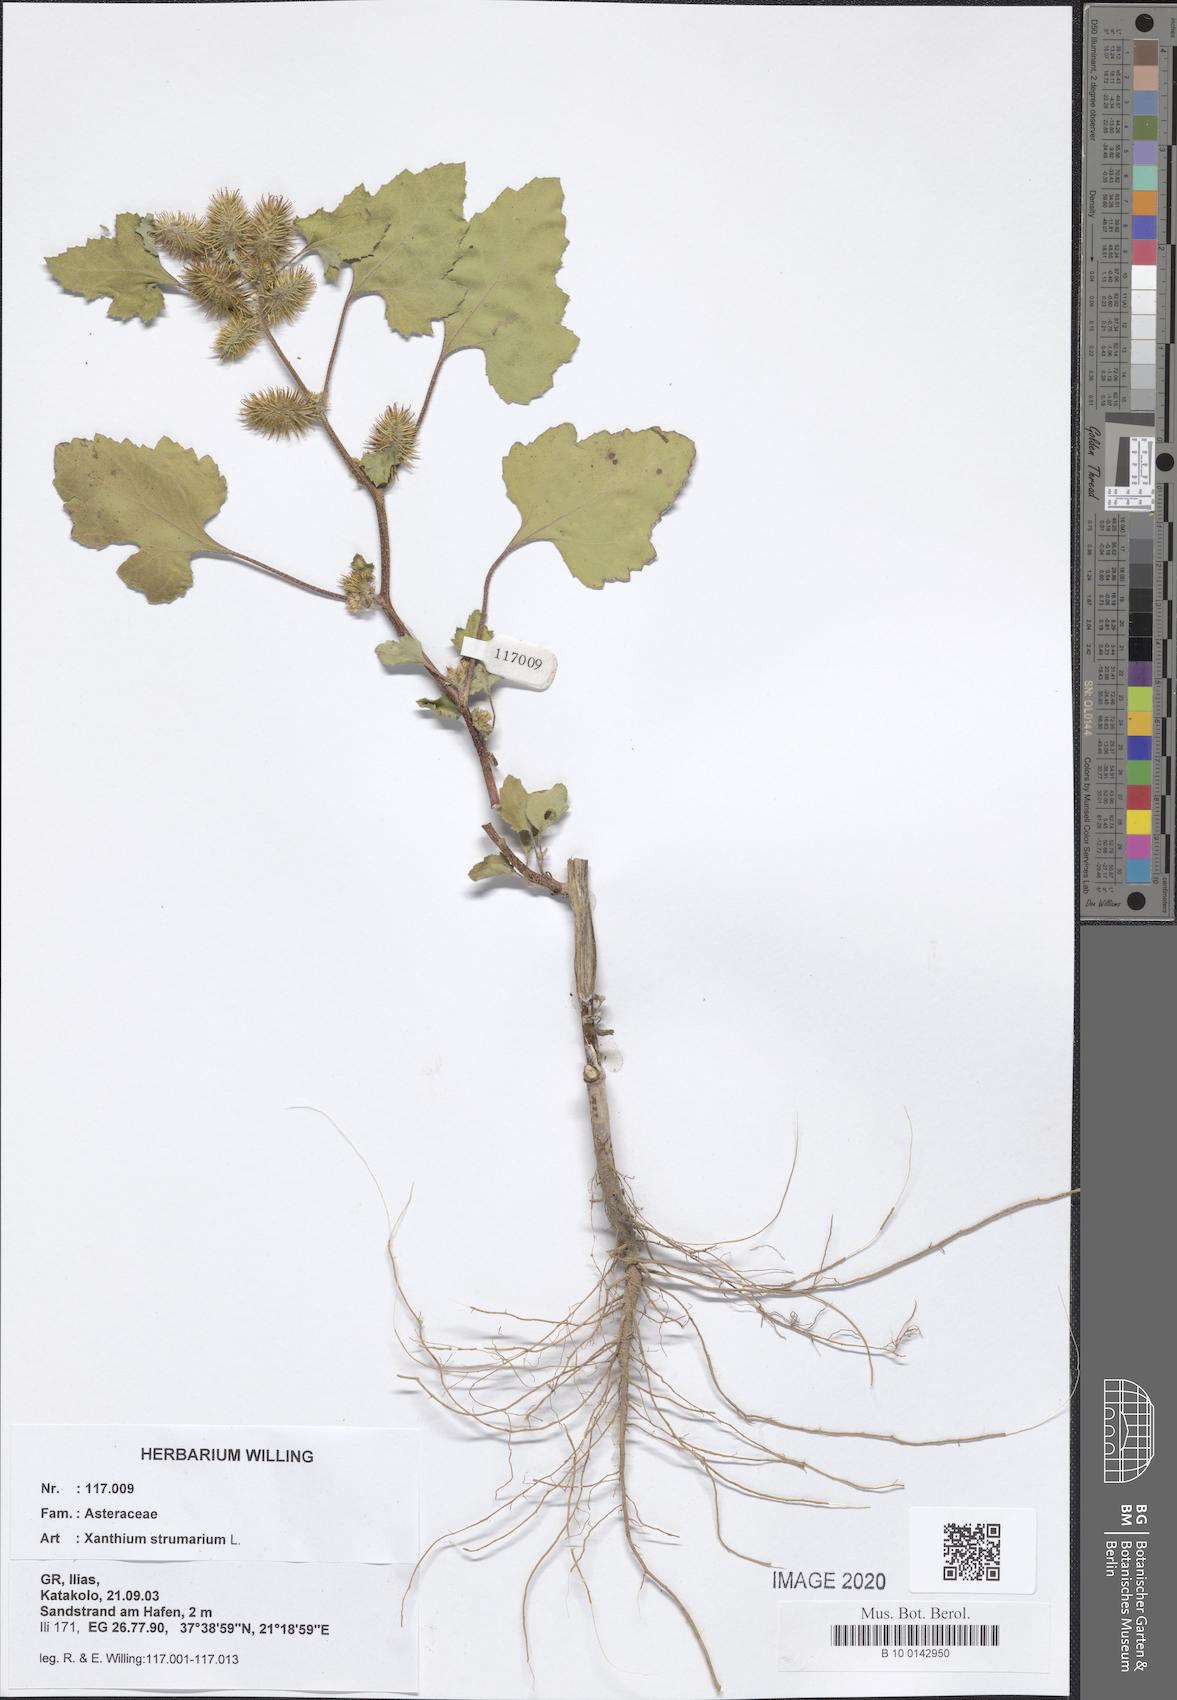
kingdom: Plantae
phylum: Tracheophyta
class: Magnoliopsida
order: Asterales
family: Asteraceae
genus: Xanthium
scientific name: Xanthium strumarium
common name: Rough cocklebur
